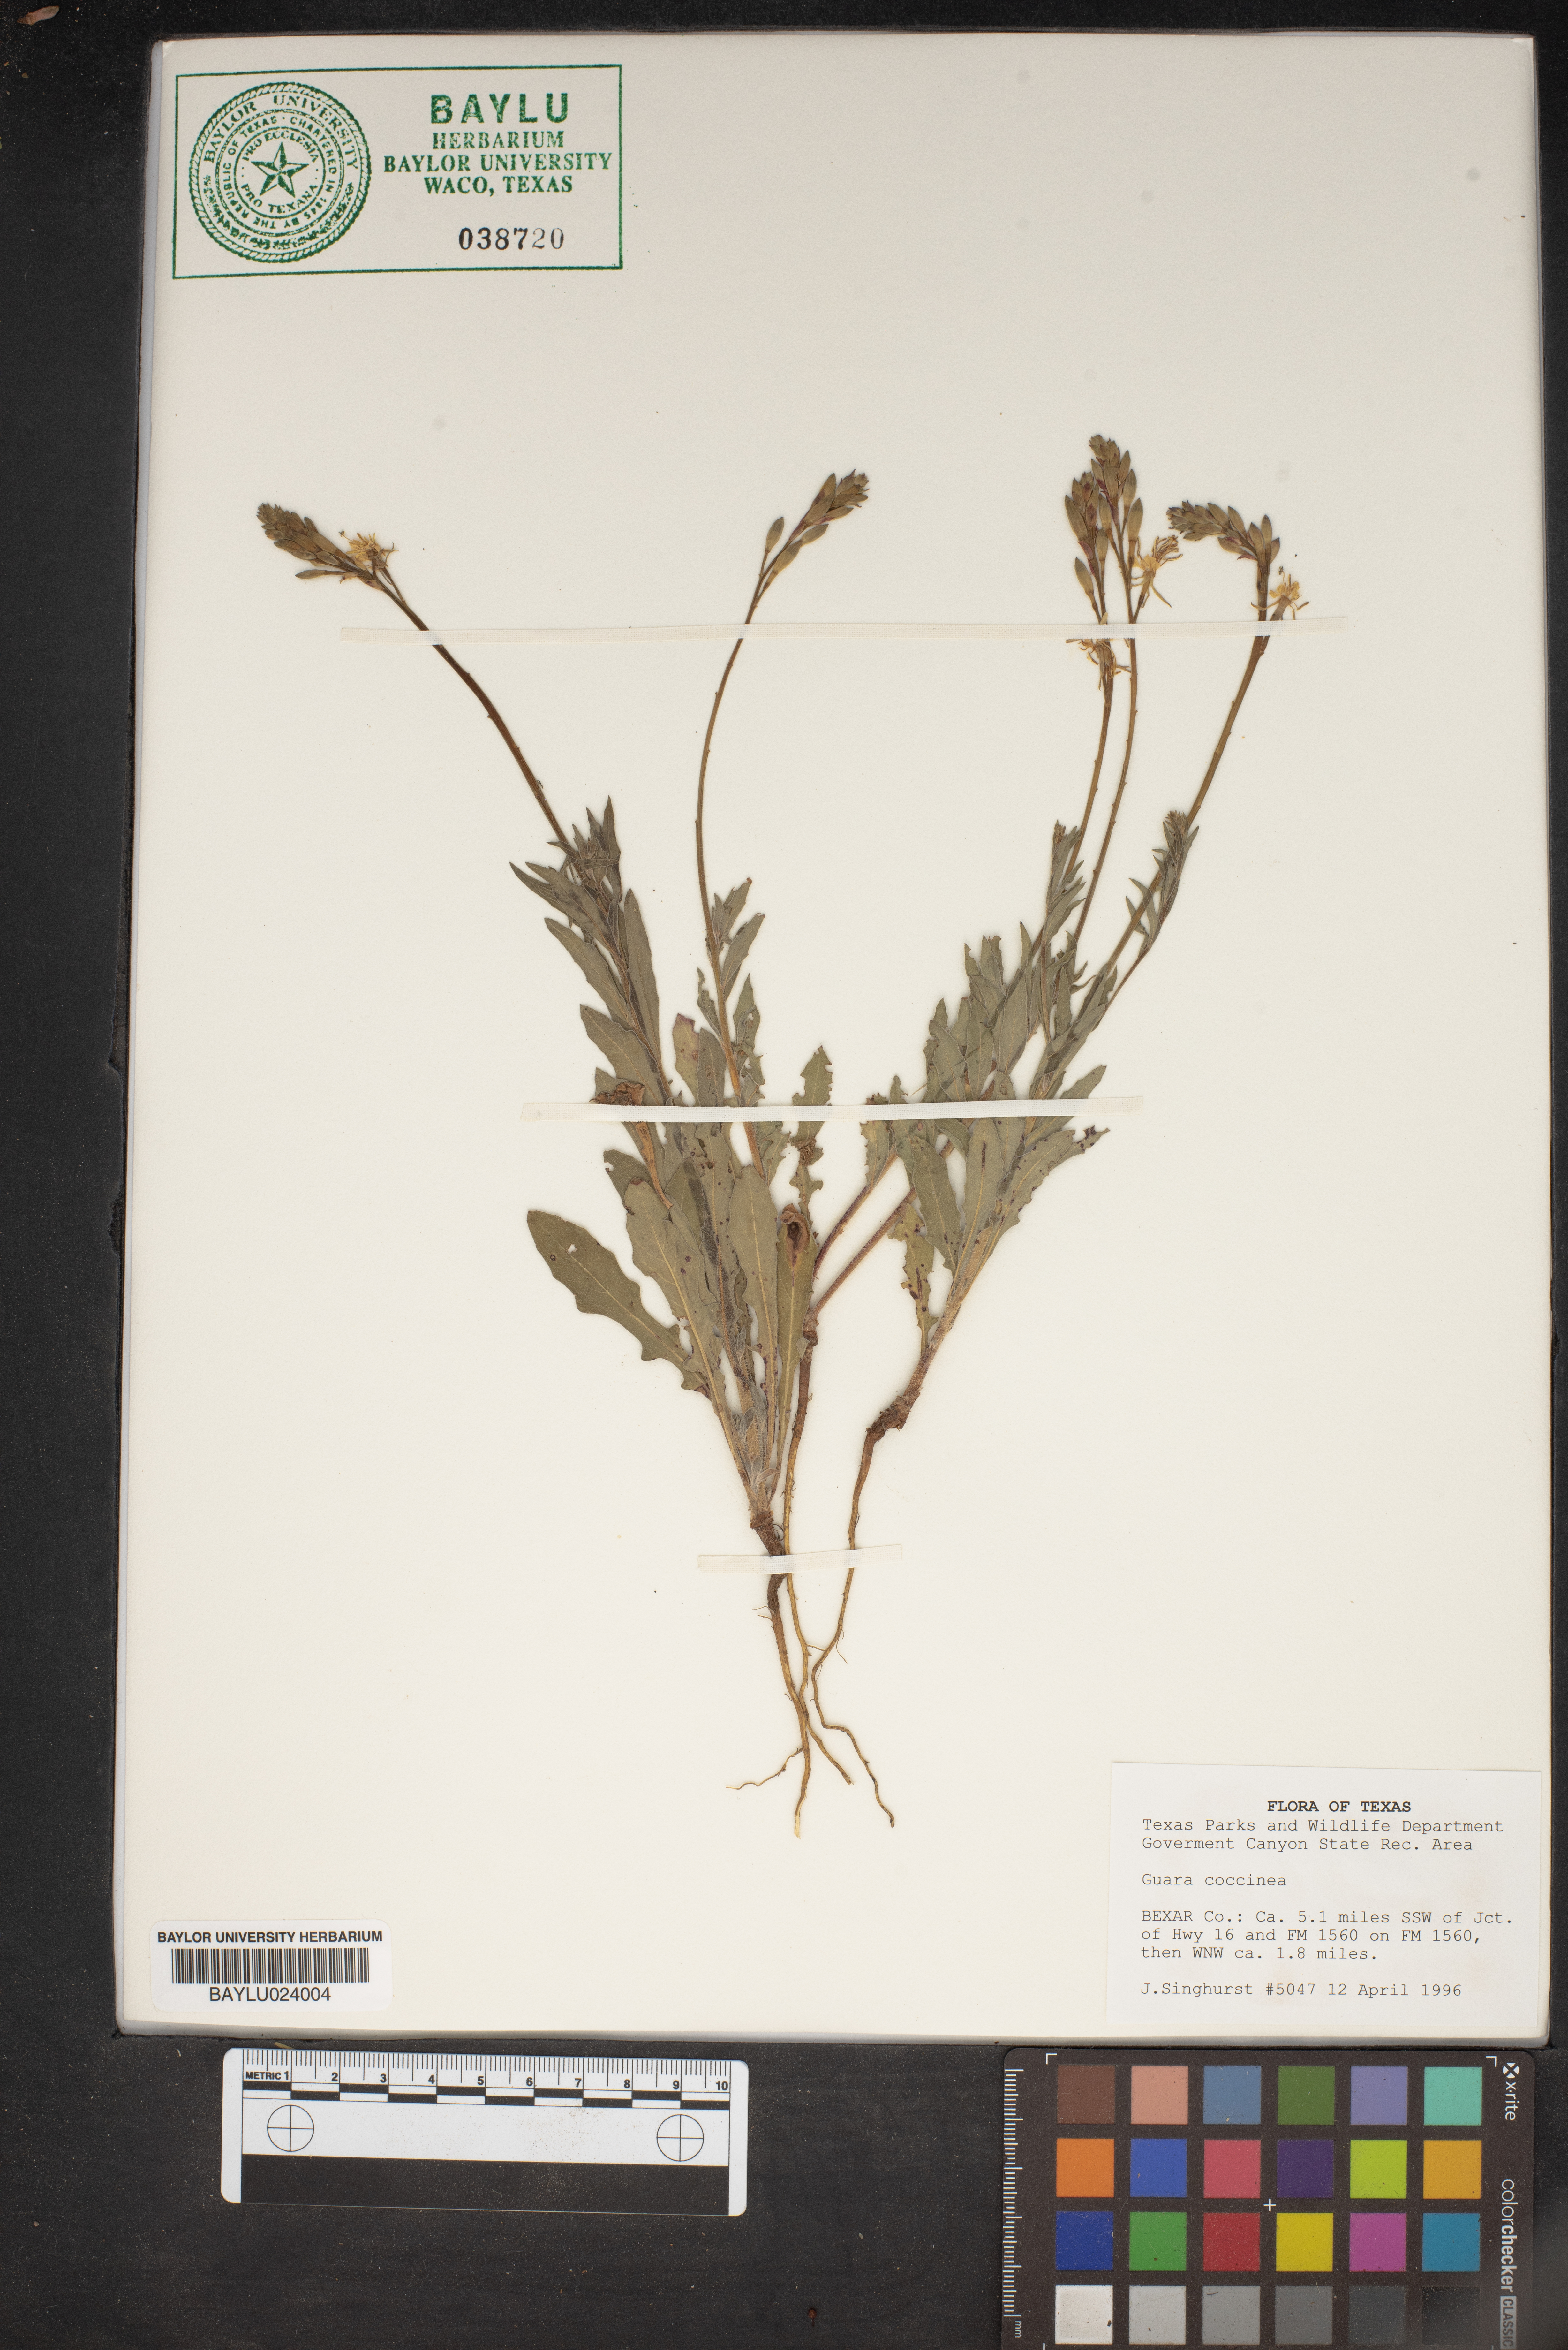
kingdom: Plantae
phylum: Tracheophyta
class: Magnoliopsida
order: Myrtales
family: Onagraceae
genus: Oenothera
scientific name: Oenothera suffrutescens
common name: Scarlet beeblossom
